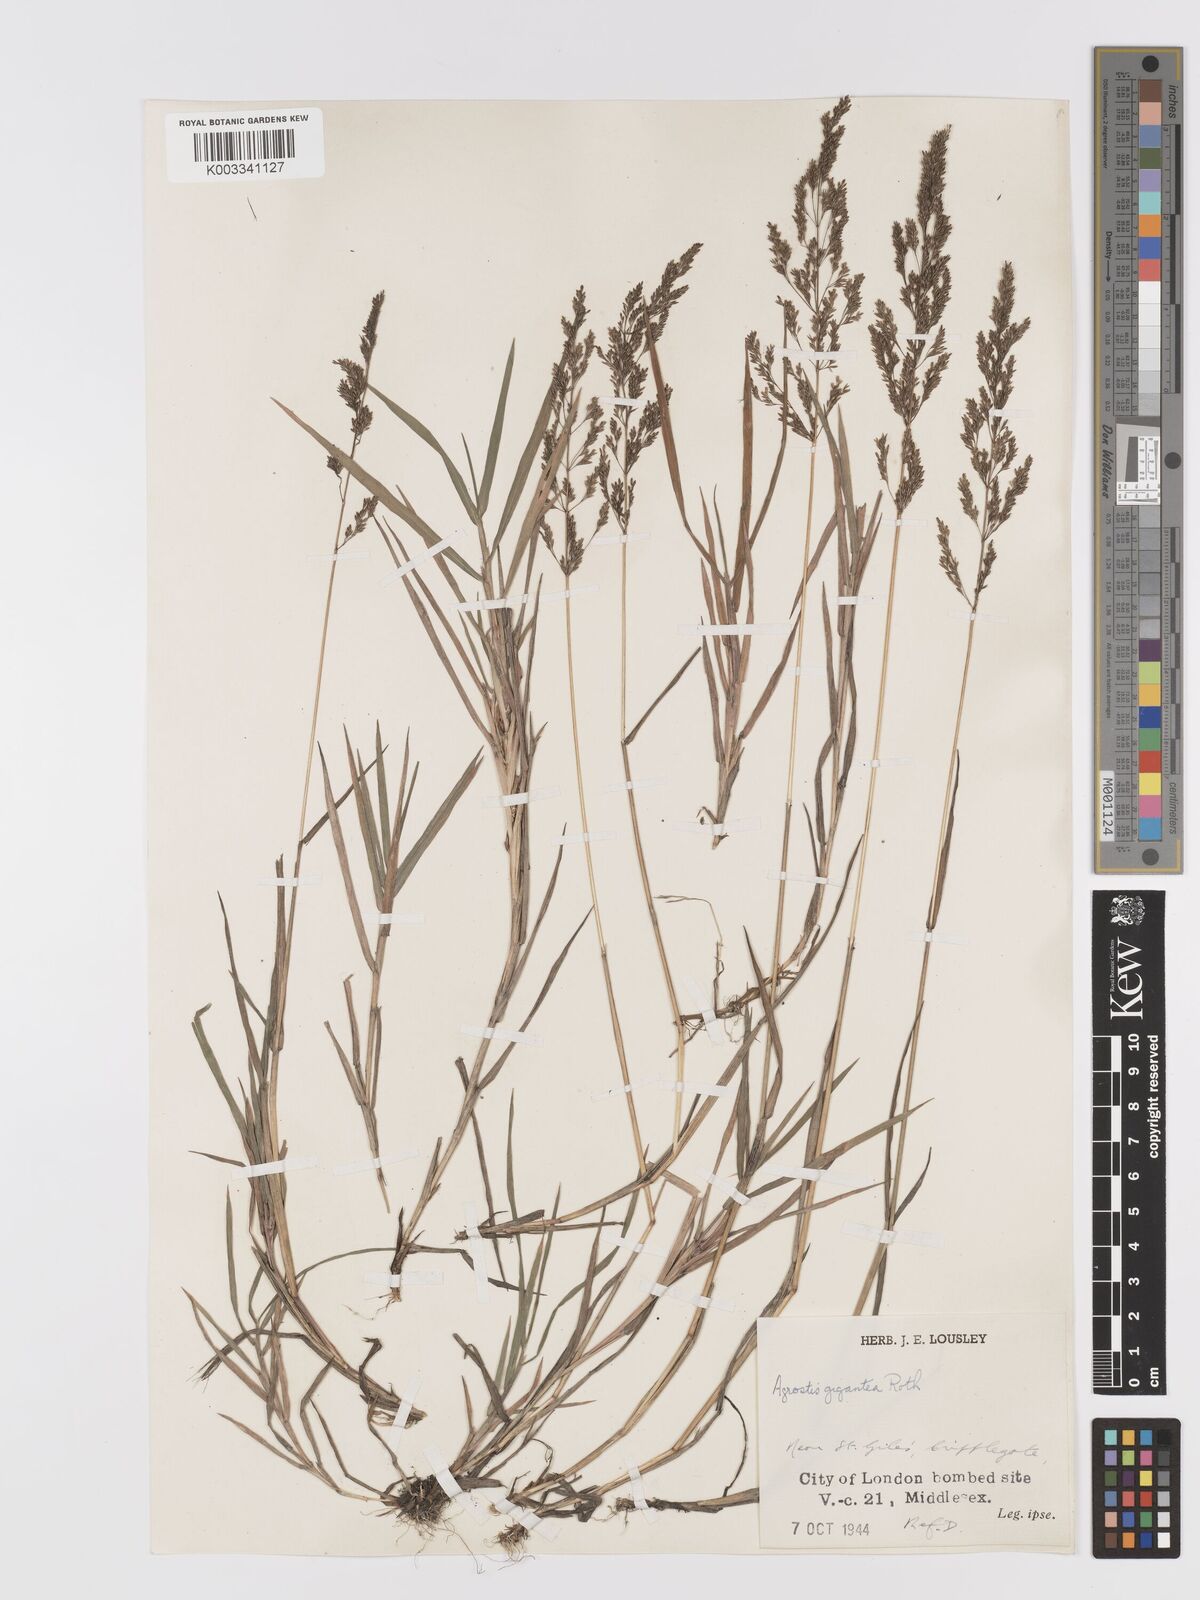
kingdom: Plantae
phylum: Tracheophyta
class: Liliopsida
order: Poales
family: Poaceae
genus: Agrostis
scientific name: Agrostis gigantea
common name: Black bent
